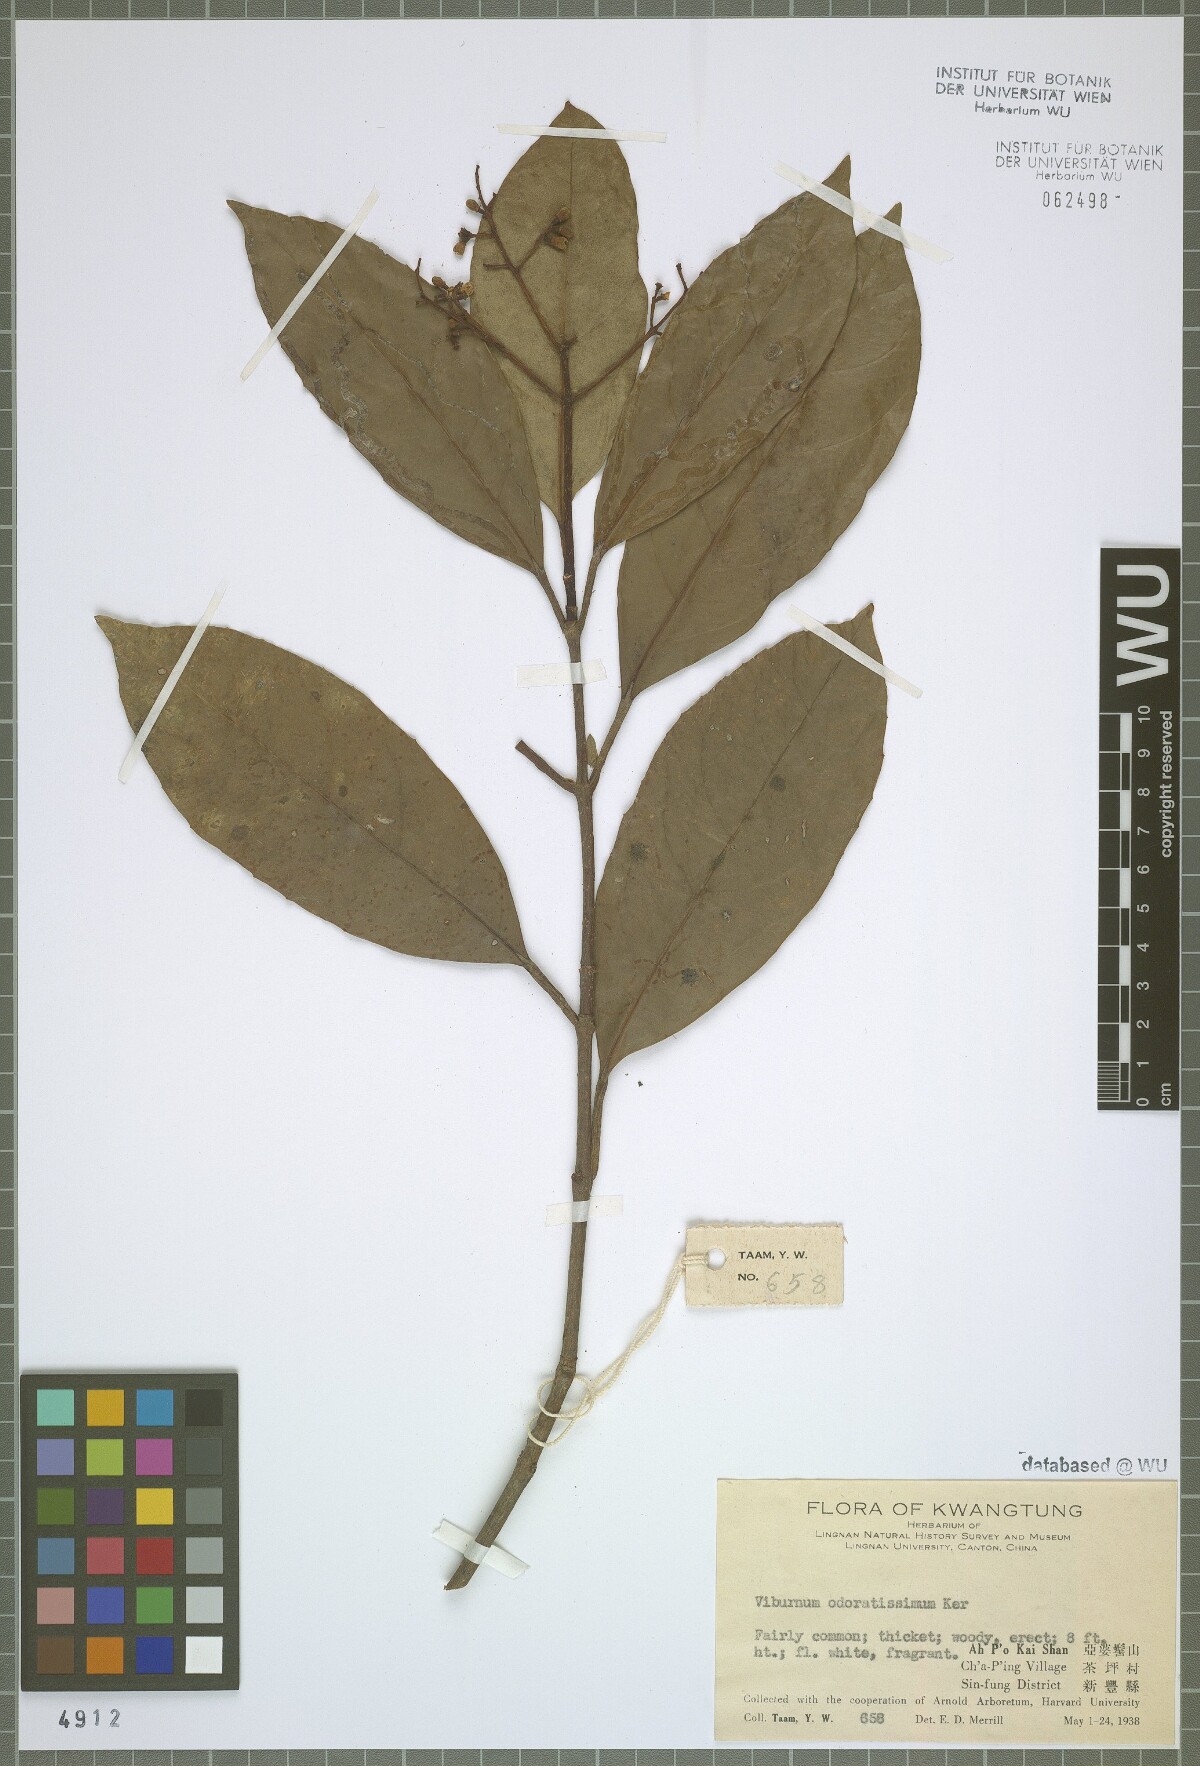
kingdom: Plantae
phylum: Tracheophyta
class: Magnoliopsida
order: Dipsacales
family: Viburnaceae
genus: Viburnum
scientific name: Viburnum odoratissimum
